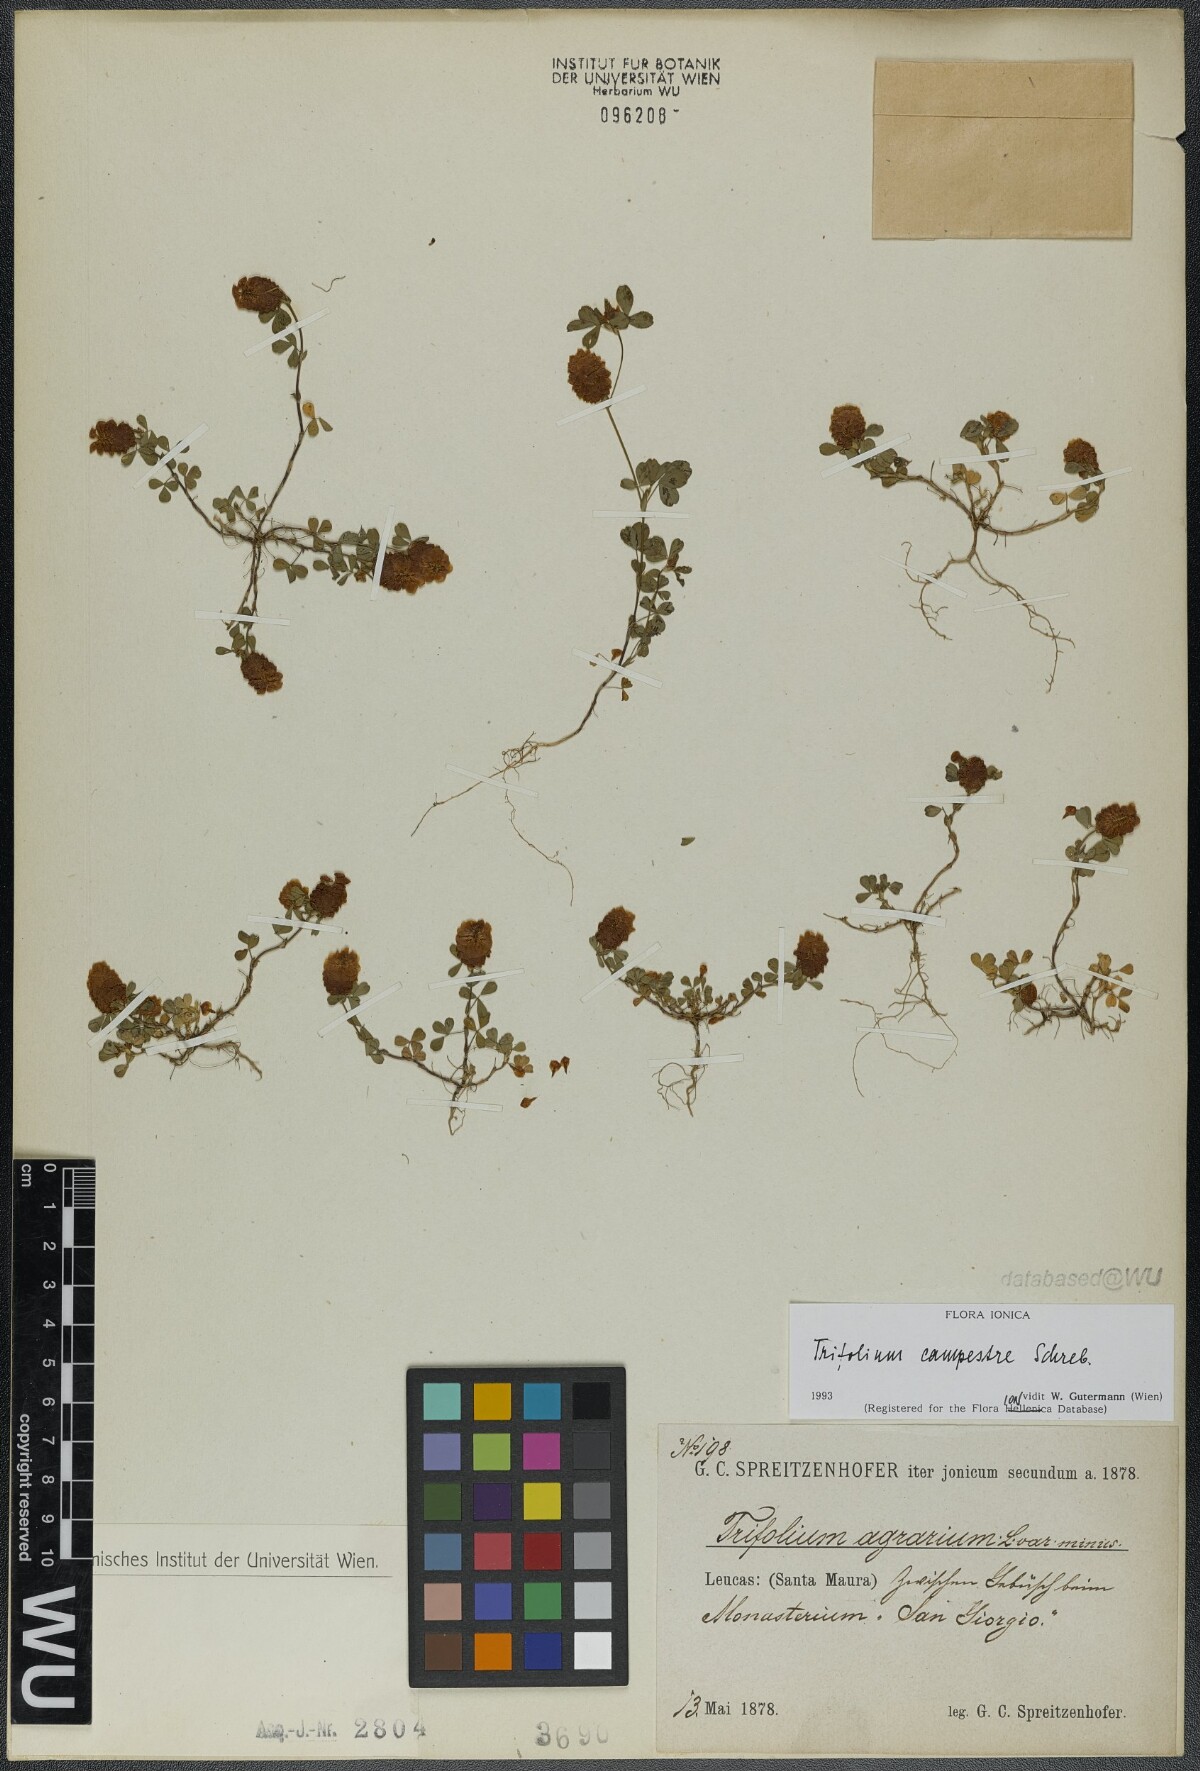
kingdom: Plantae
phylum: Tracheophyta
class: Magnoliopsida
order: Fabales
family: Fabaceae
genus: Trifolium
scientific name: Trifolium campestre
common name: Field clover
